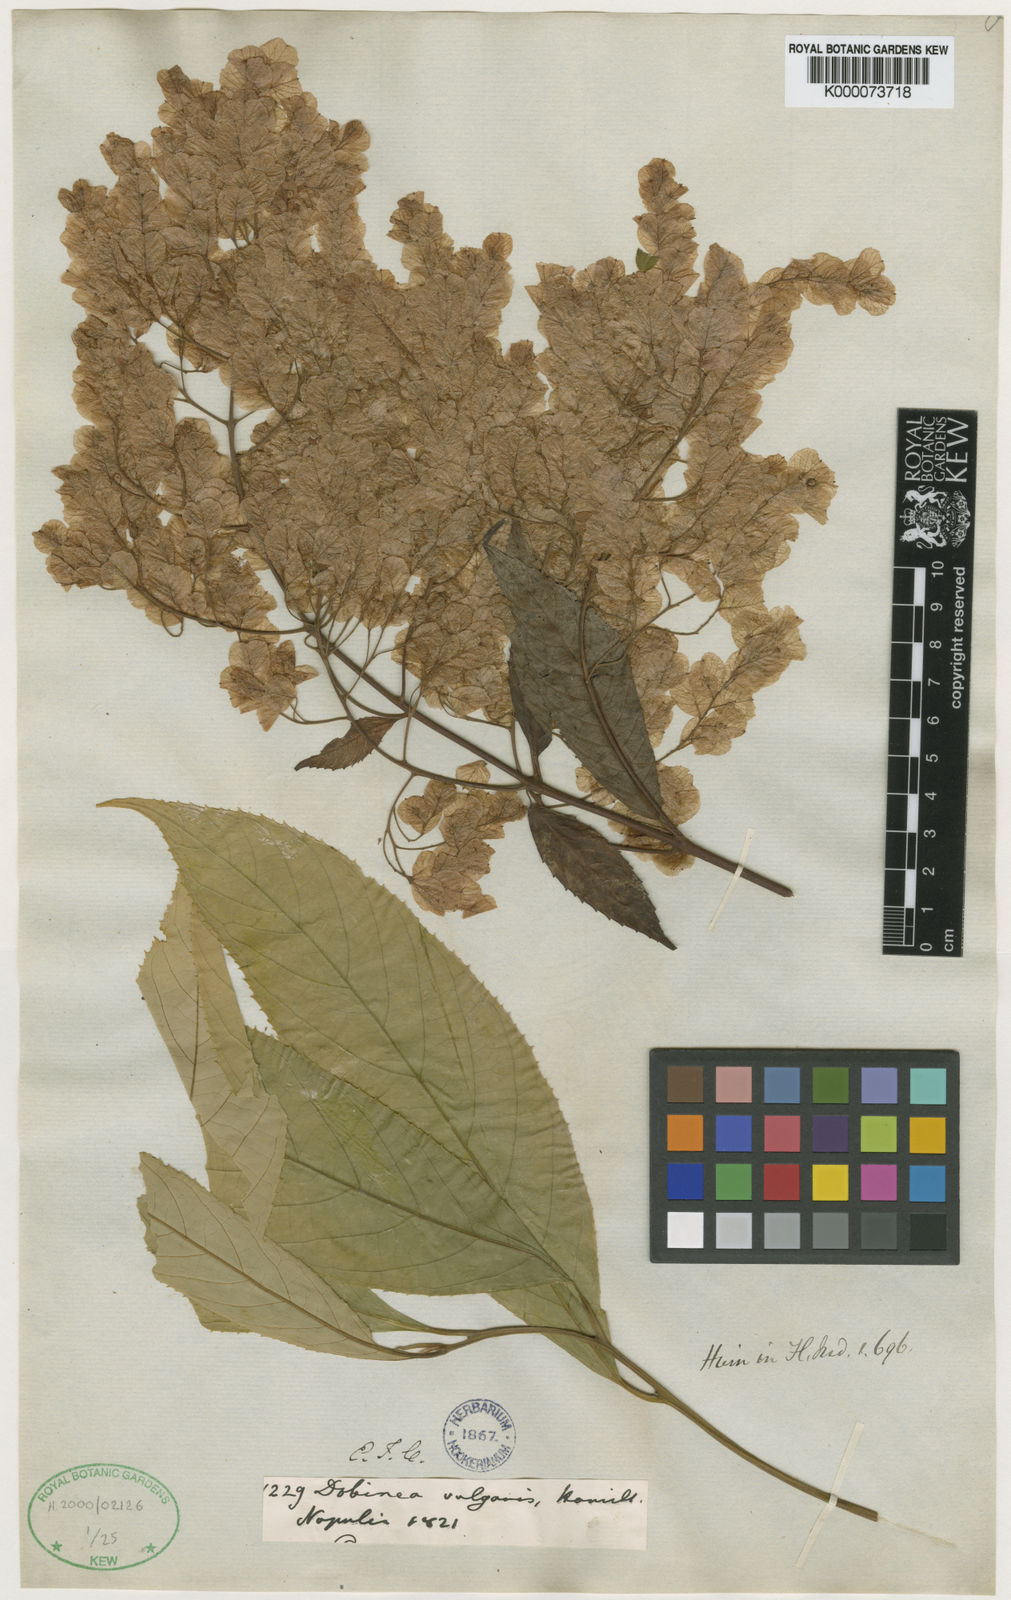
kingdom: Plantae
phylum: Tracheophyta
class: Magnoliopsida
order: Sapindales
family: Anacardiaceae
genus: Dobinea
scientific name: Dobinea
